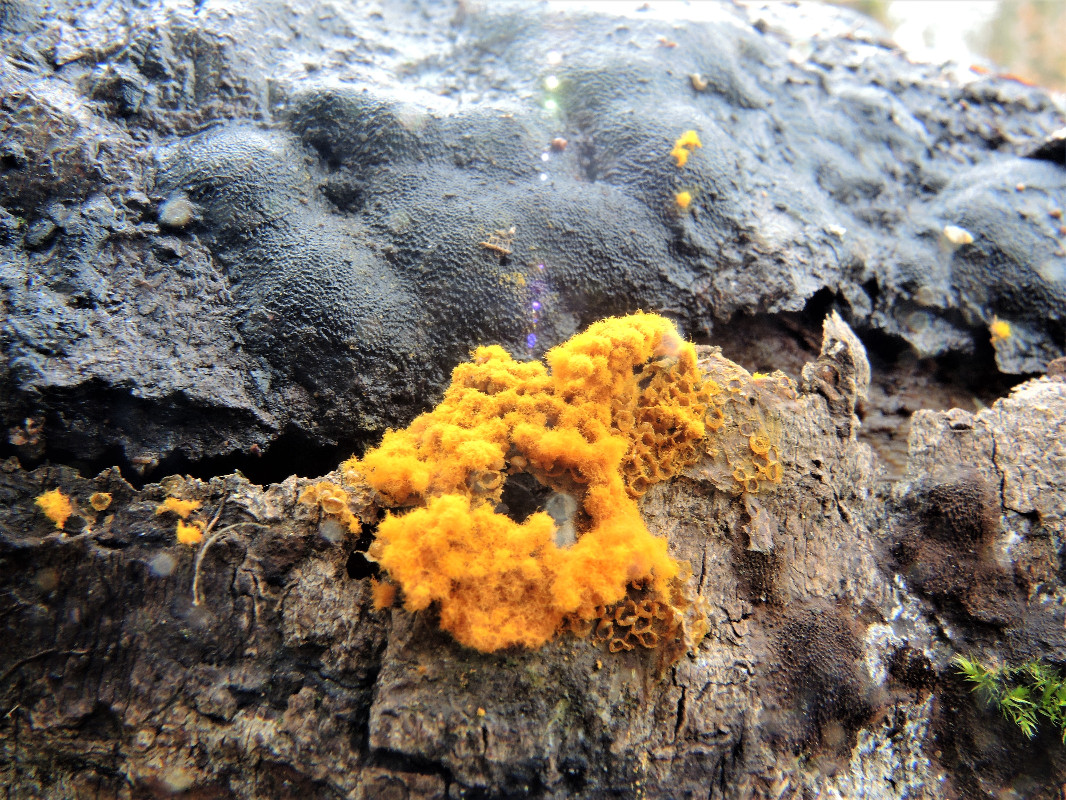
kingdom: Protozoa
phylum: Mycetozoa
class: Myxomycetes
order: Trichiales
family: Trichiaceae
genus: Trichia
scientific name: Trichia scabra
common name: tæppe-hårbold
